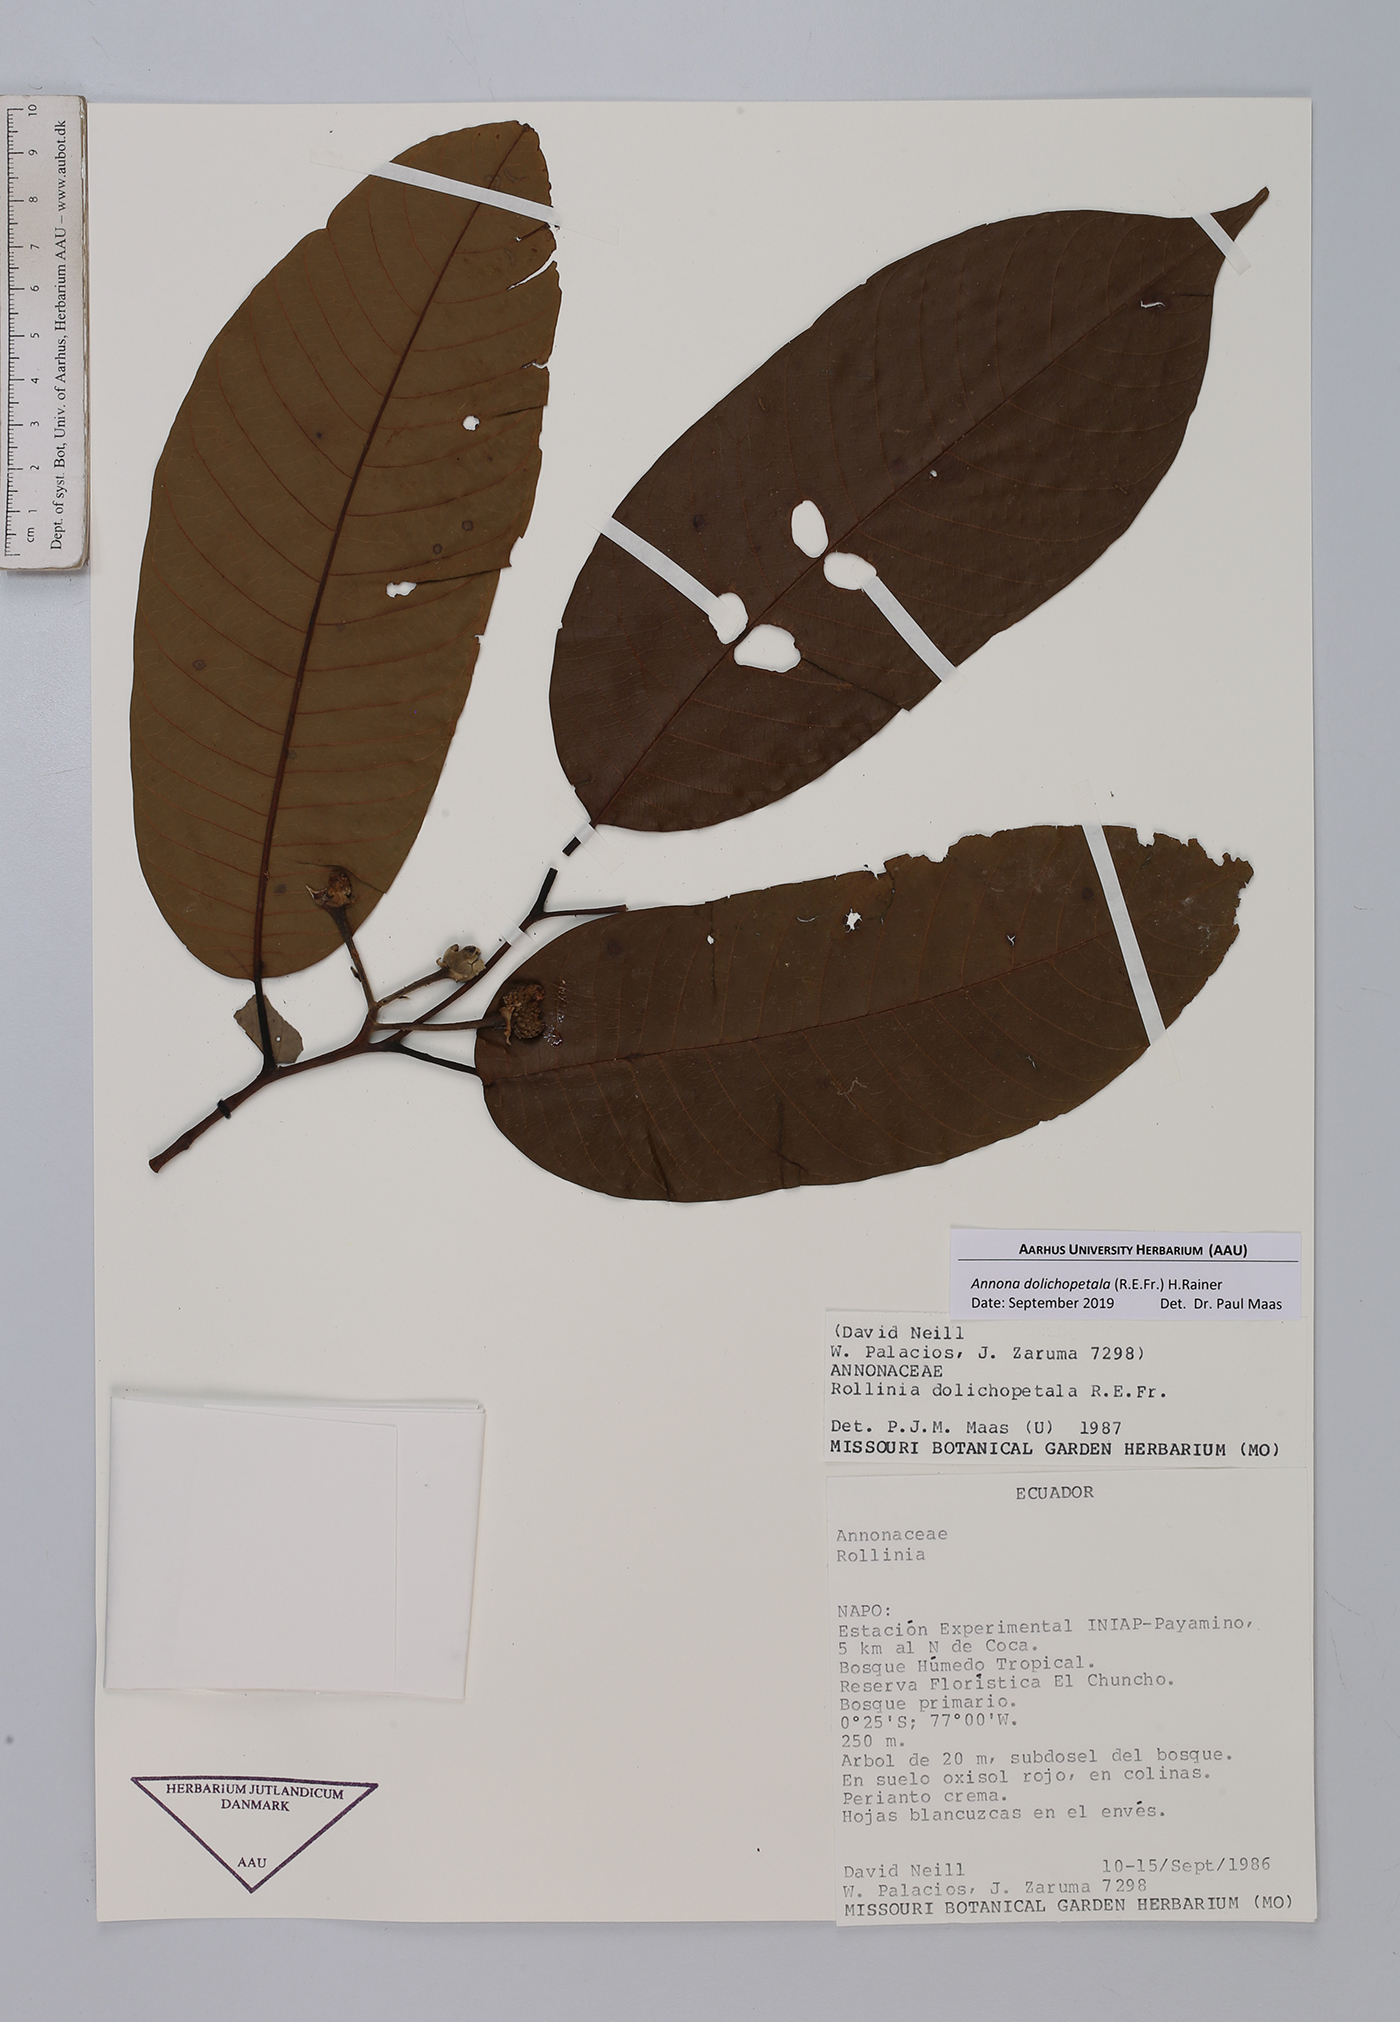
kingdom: Plantae
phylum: Tracheophyta
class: Magnoliopsida
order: Magnoliales
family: Annonaceae
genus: Annona
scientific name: Annona dolichopetala
